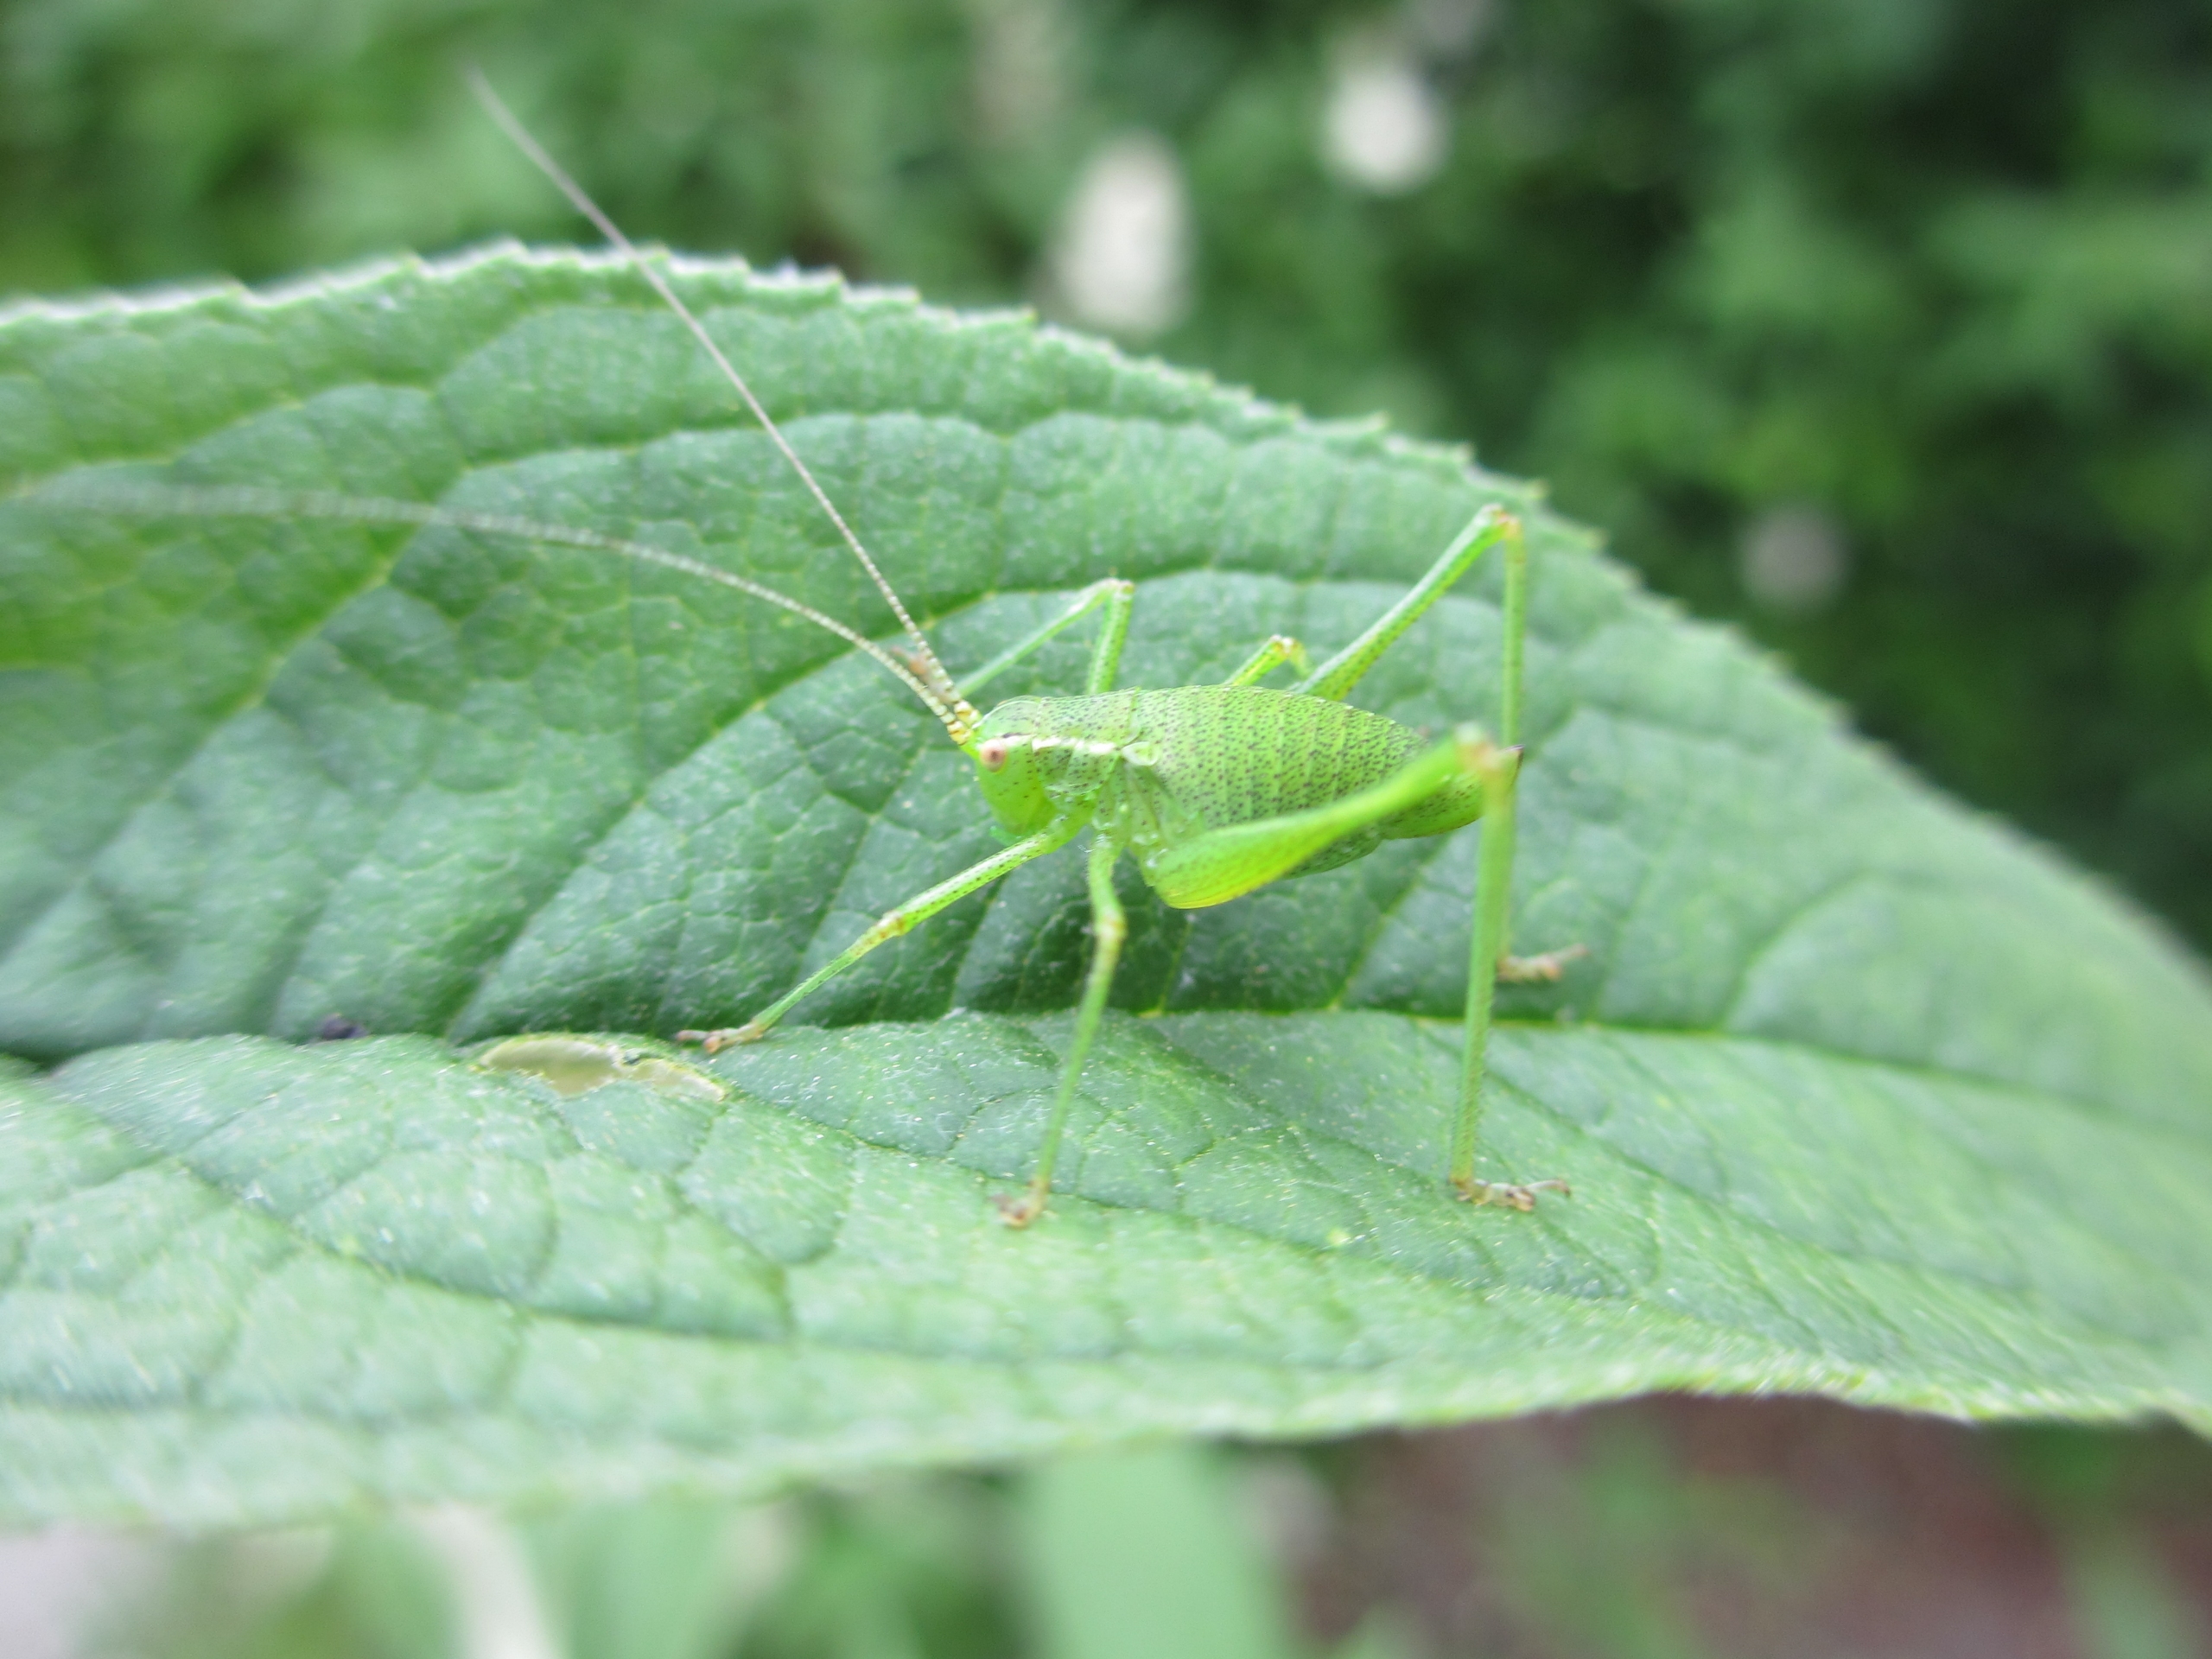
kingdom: Animalia
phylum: Arthropoda
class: Insecta
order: Orthoptera
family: Tettigoniidae
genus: Leptophyes
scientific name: Leptophyes punctatissima
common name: Krumknivgræshoppe
